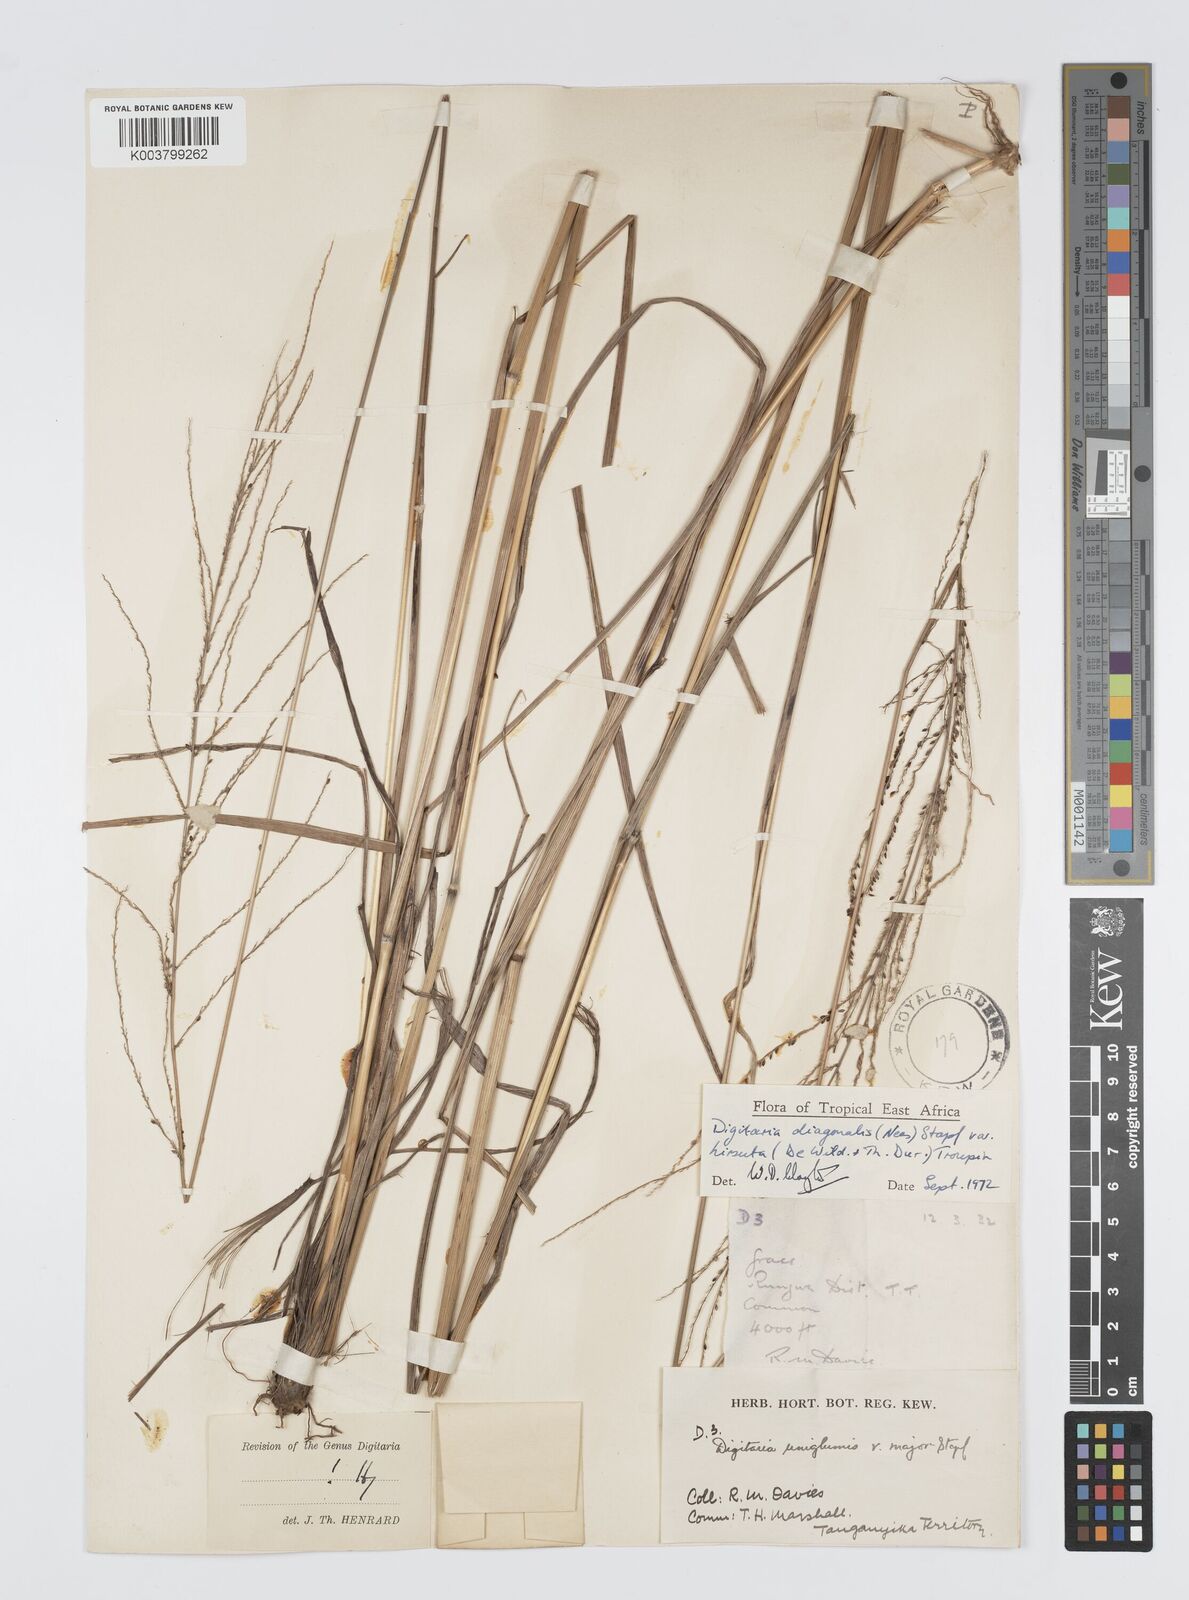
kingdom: Plantae
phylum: Tracheophyta
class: Liliopsida
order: Poales
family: Poaceae
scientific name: Poaceae
